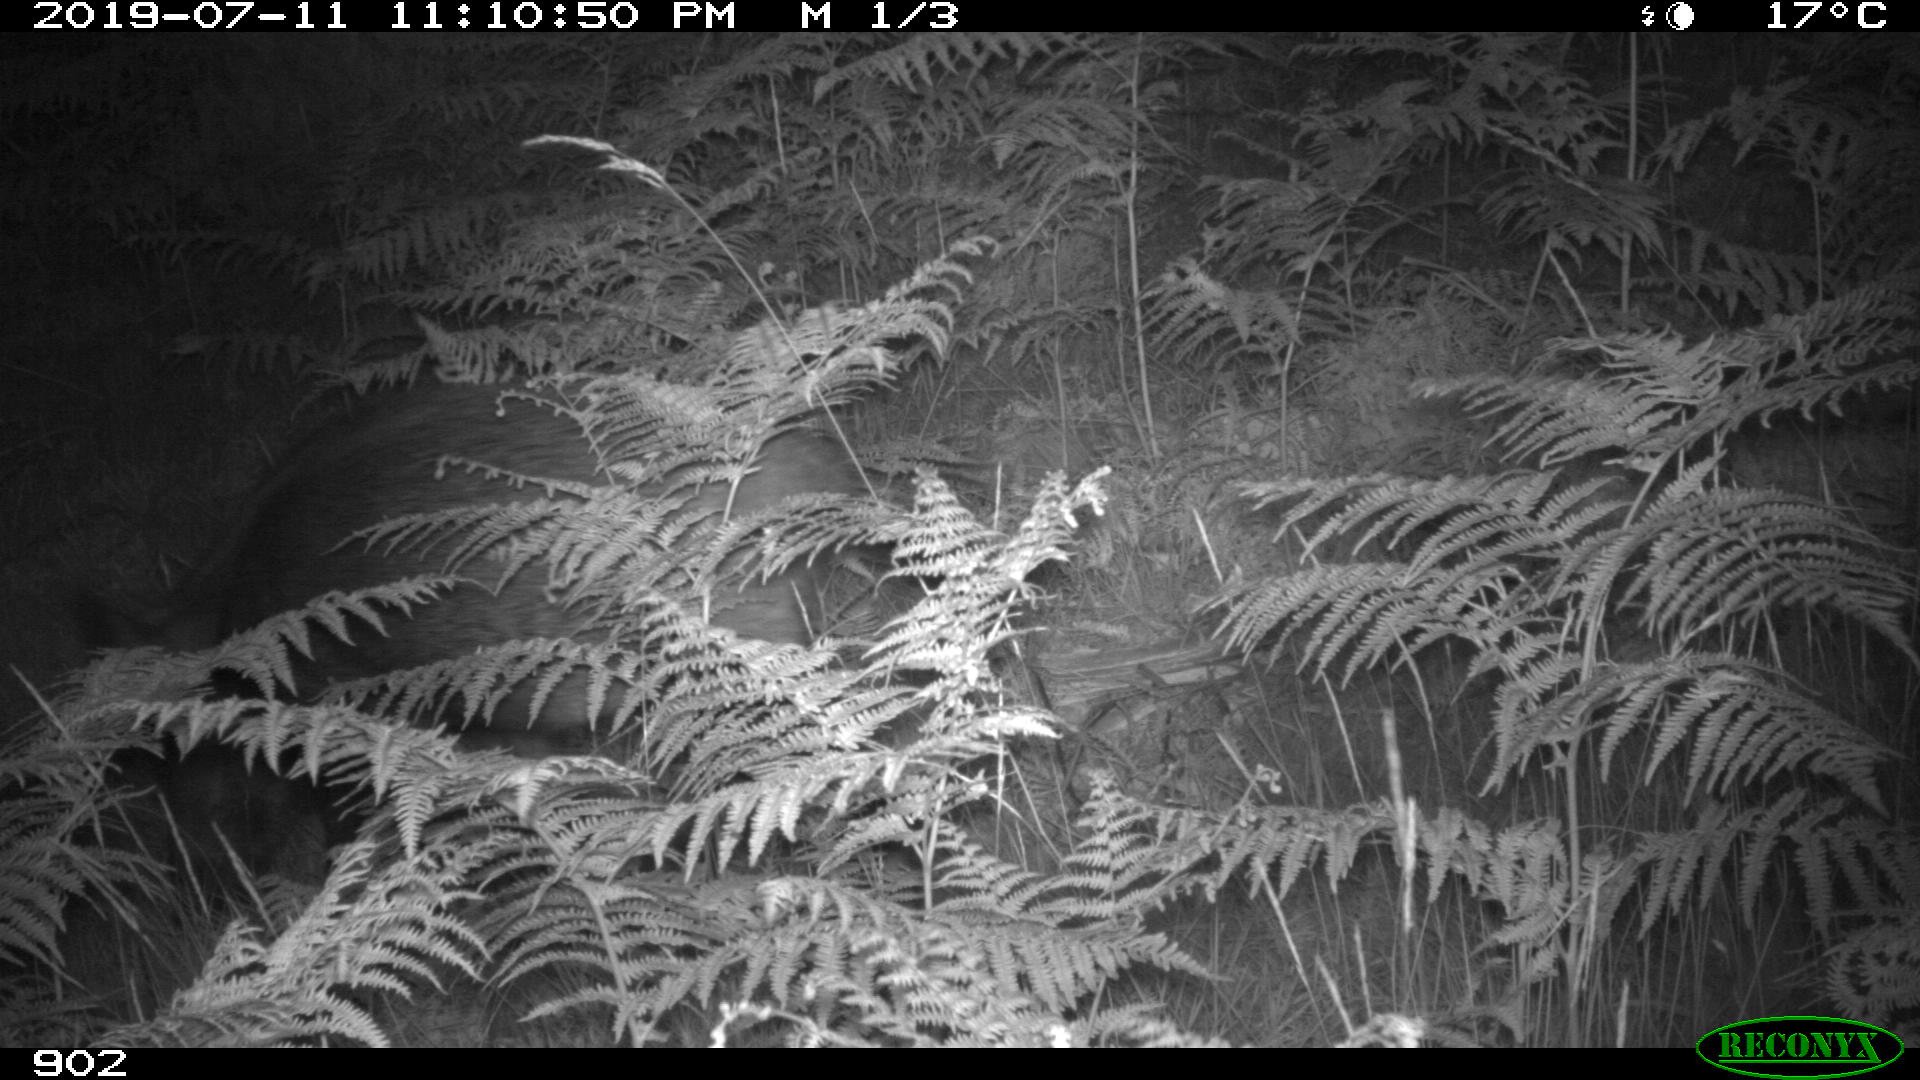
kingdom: Animalia
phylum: Chordata
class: Mammalia
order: Artiodactyla
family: Suidae
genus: Sus
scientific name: Sus scrofa
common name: Wild boar
